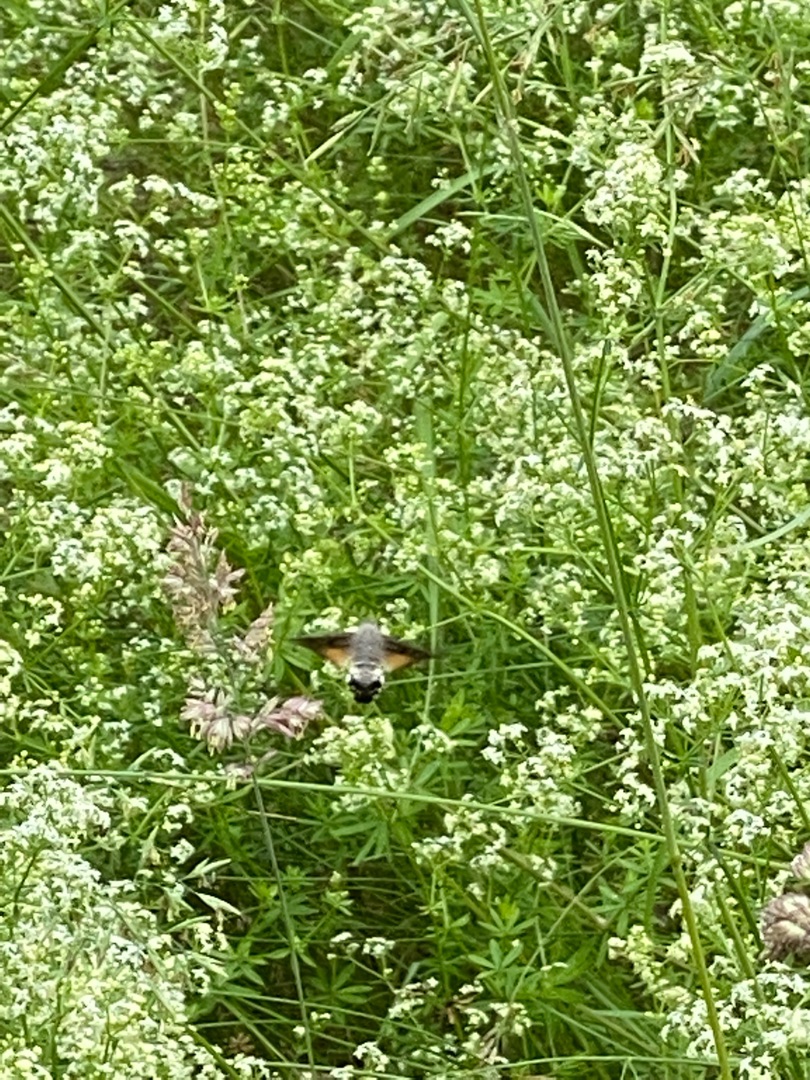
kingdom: Animalia
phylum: Arthropoda
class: Insecta
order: Lepidoptera
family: Sphingidae
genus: Macroglossum
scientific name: Macroglossum stellatarum
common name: Duehale
